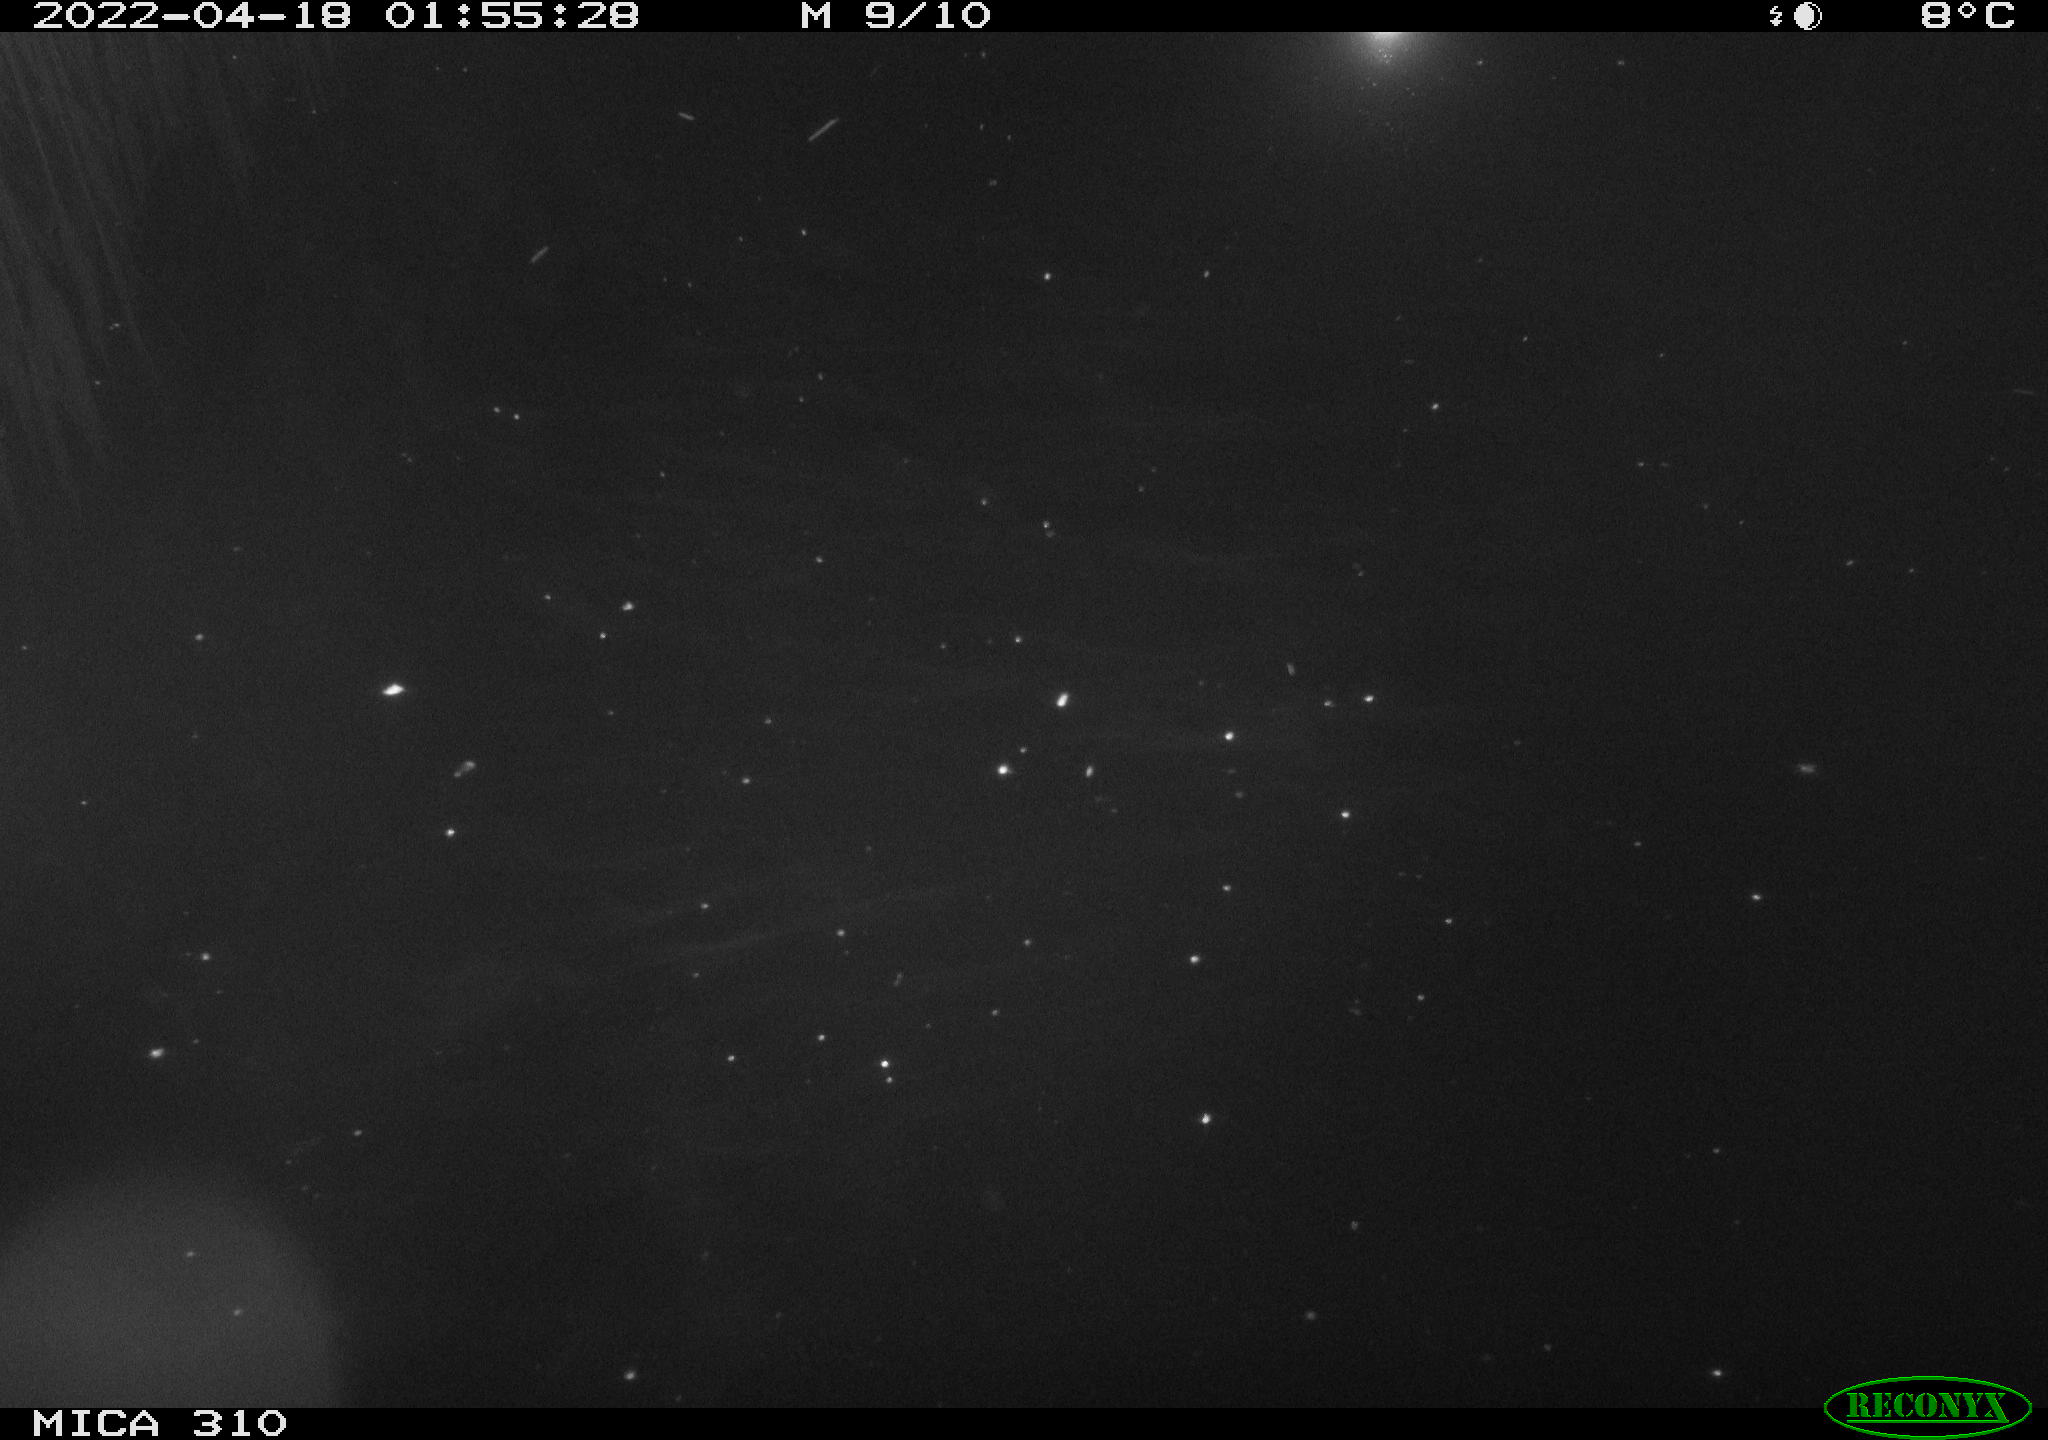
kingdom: Animalia
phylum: Chordata
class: Aves
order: Anseriformes
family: Anatidae
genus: Anas
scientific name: Anas platyrhynchos
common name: Mallard
